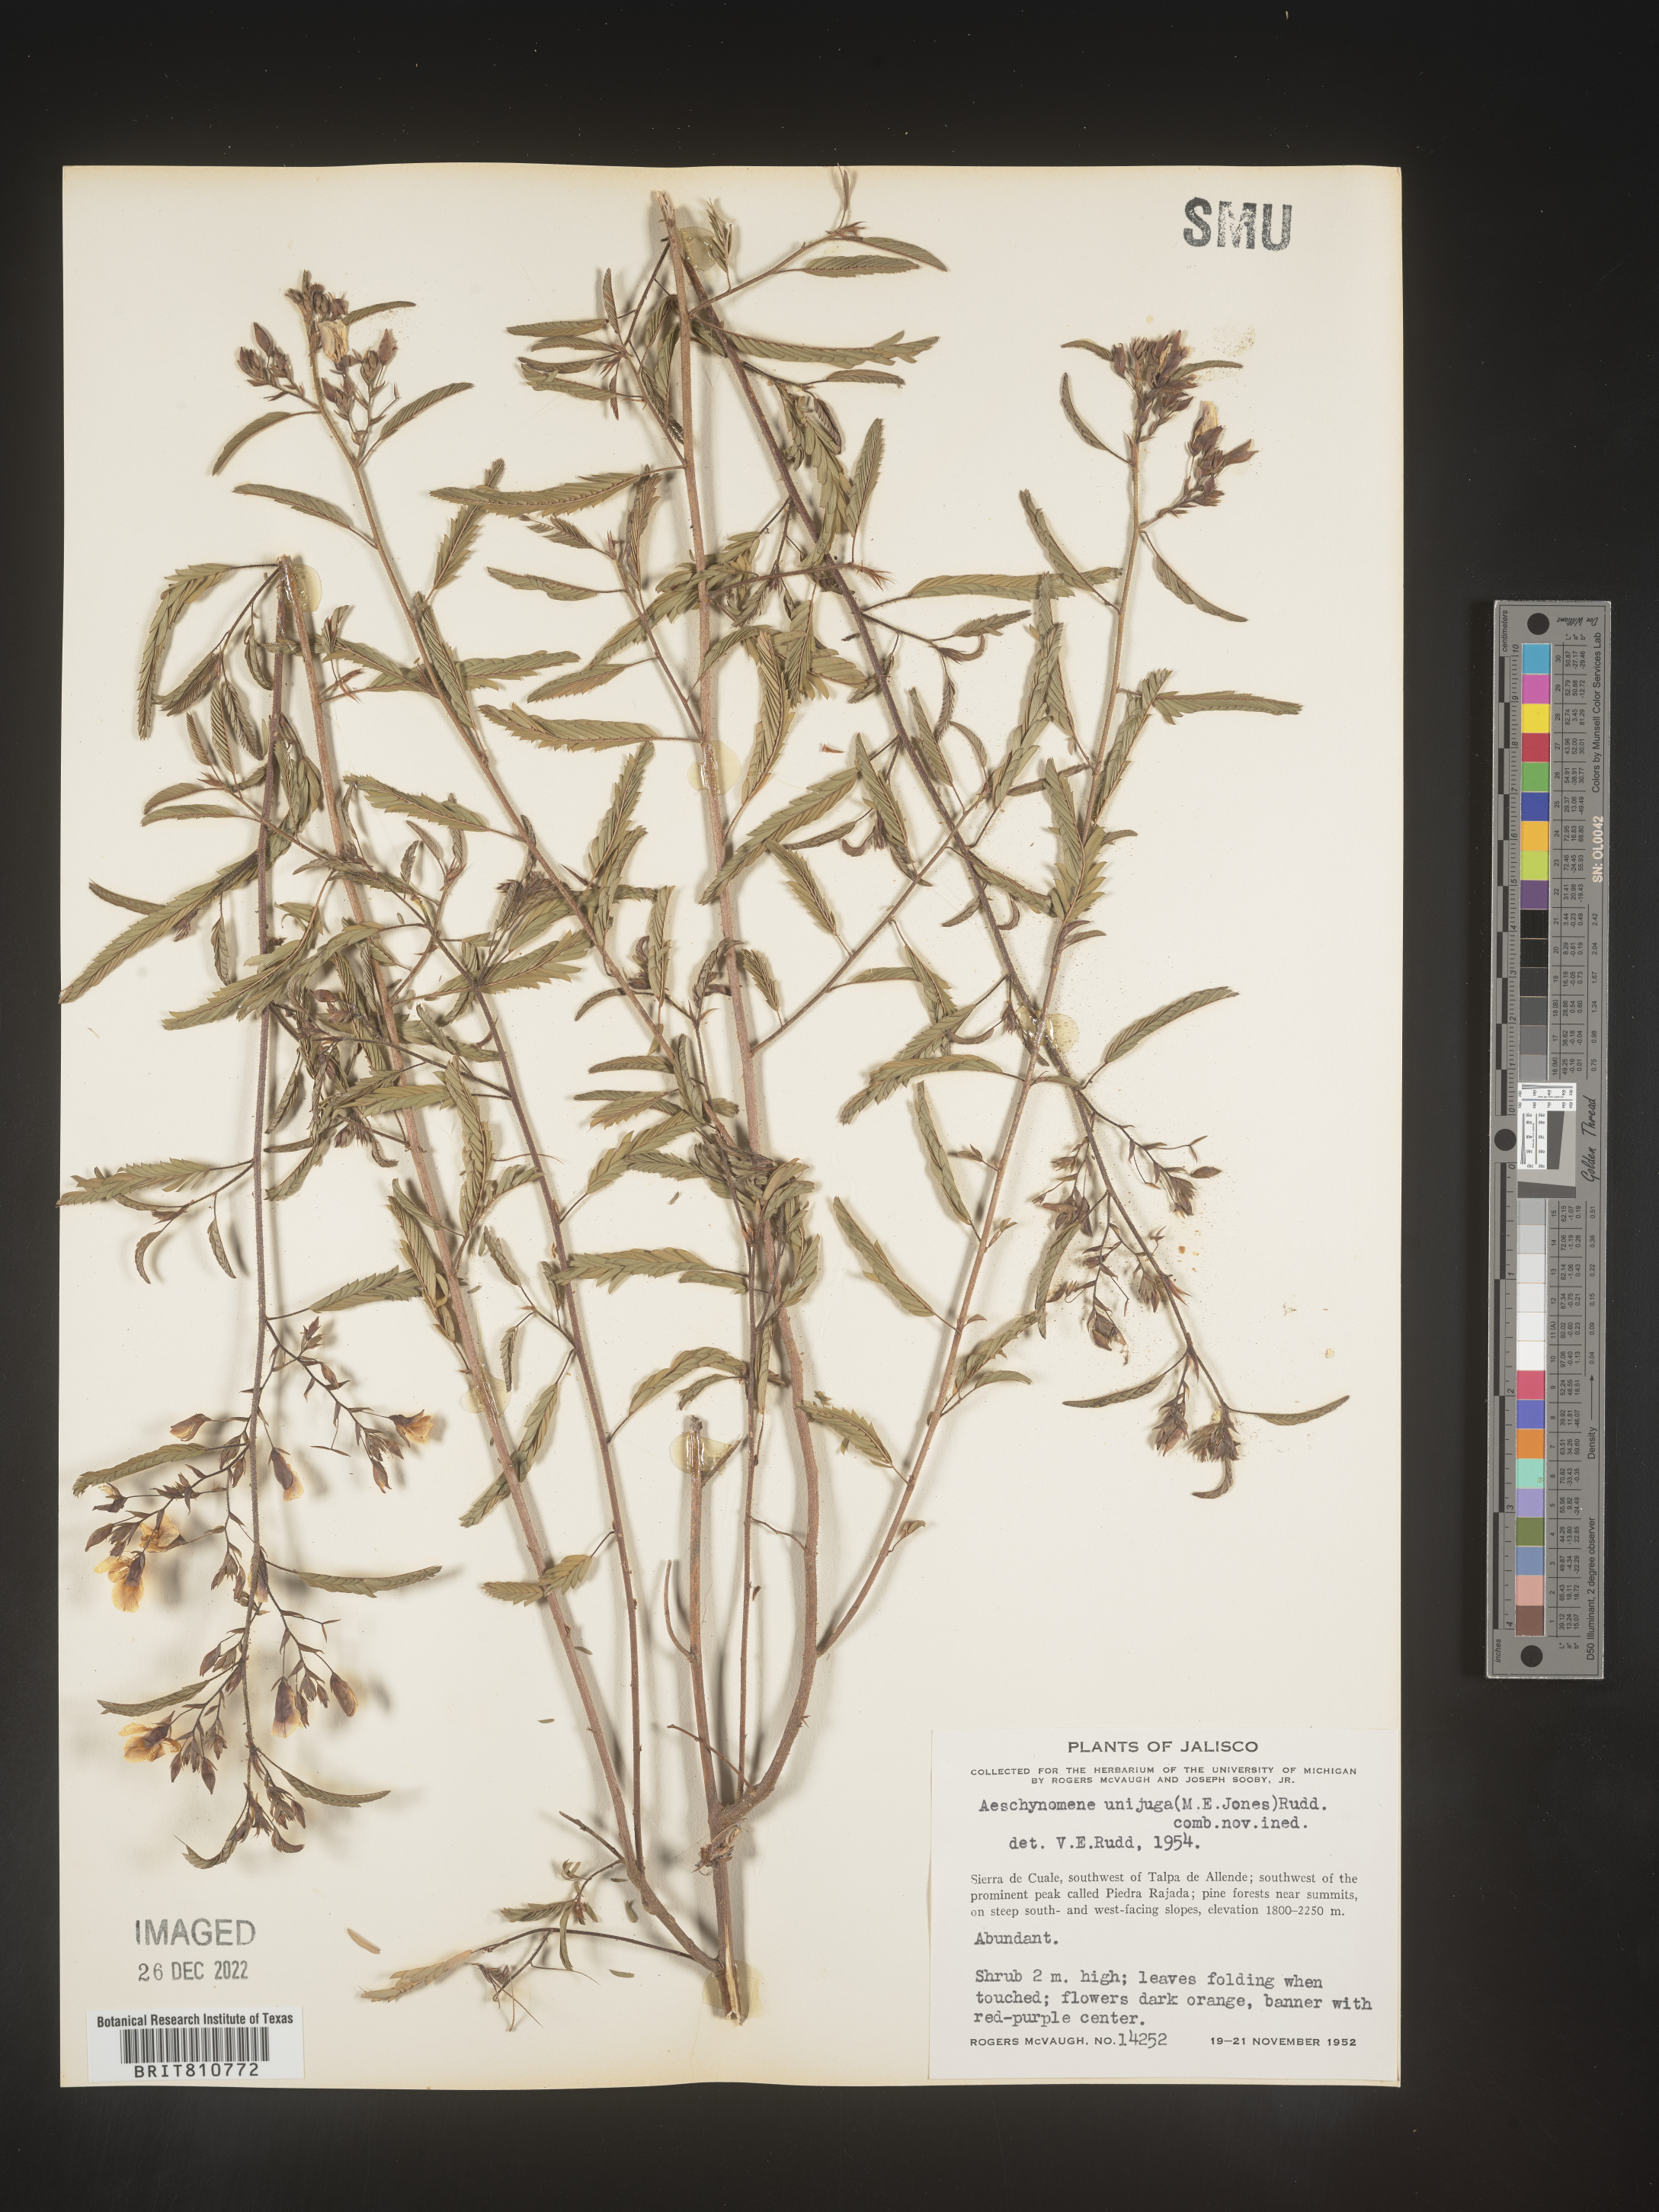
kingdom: Plantae
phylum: Tracheophyta
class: Magnoliopsida
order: Fabales
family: Fabaceae
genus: Aeschynomene
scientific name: Aeschynomene
